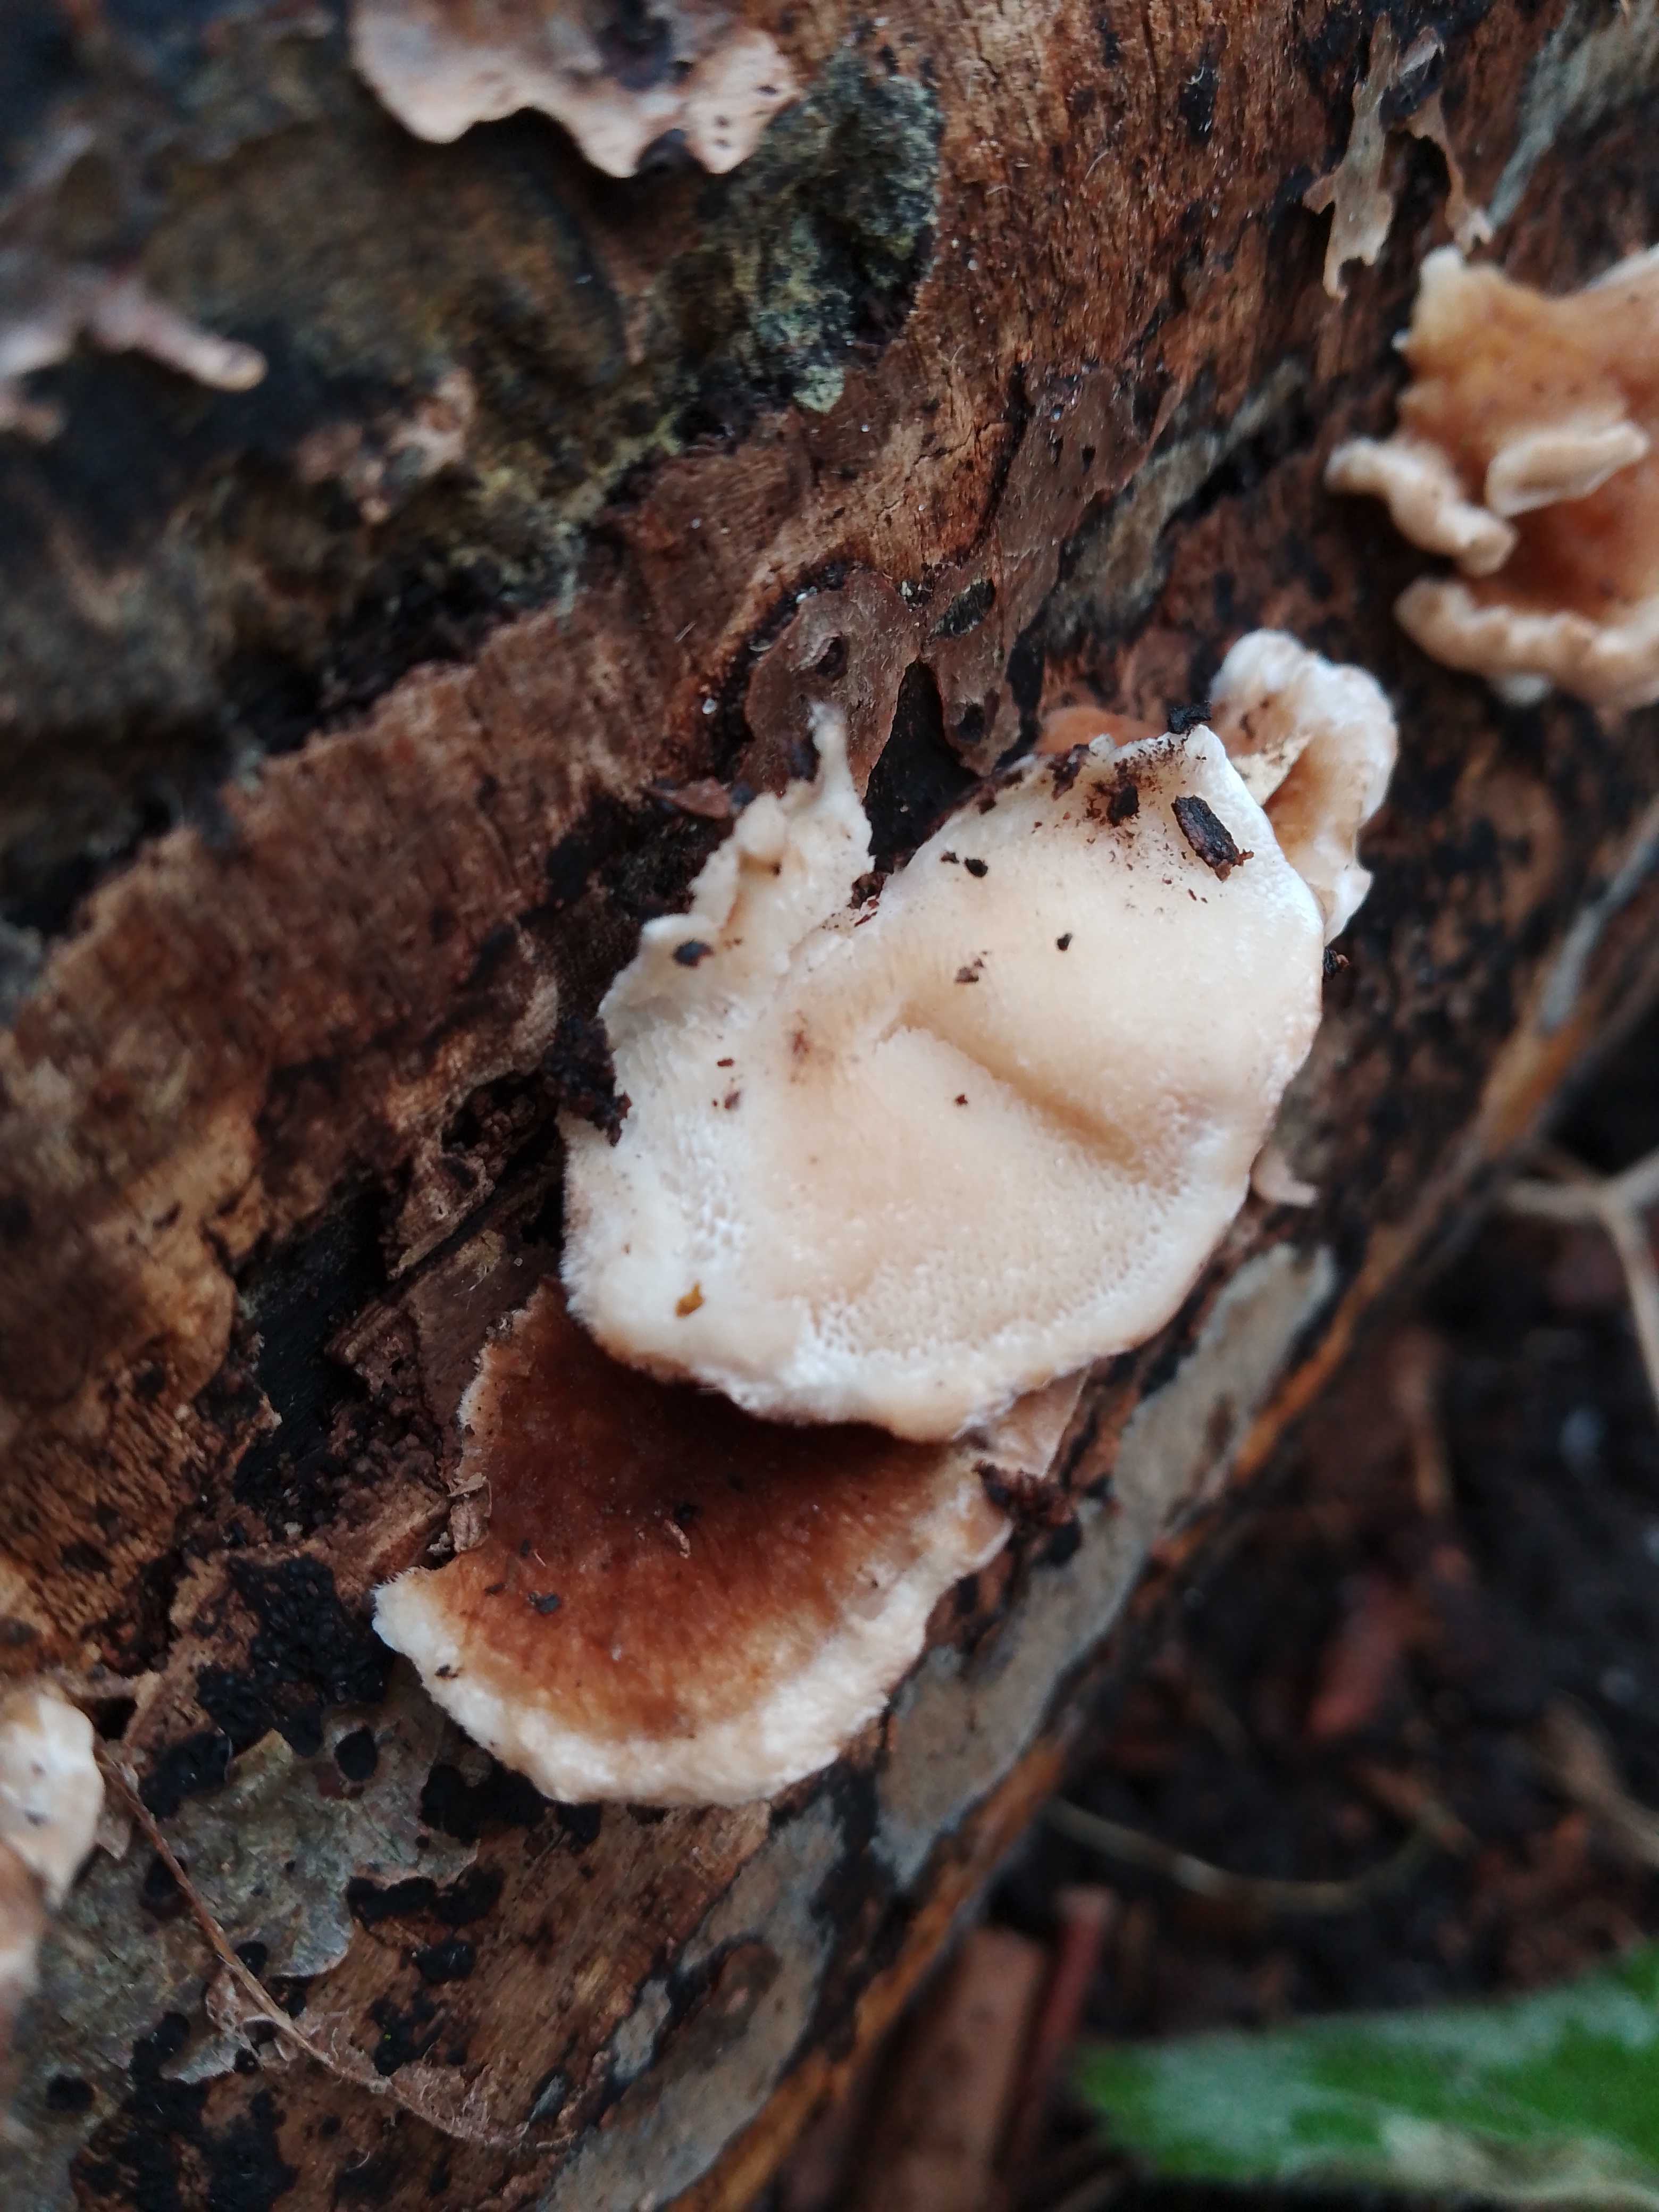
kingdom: Fungi
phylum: Basidiomycota
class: Agaricomycetes
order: Polyporales
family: Polyporaceae
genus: Trametes
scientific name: Trametes ochracea
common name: bæltet læderporesvamp
